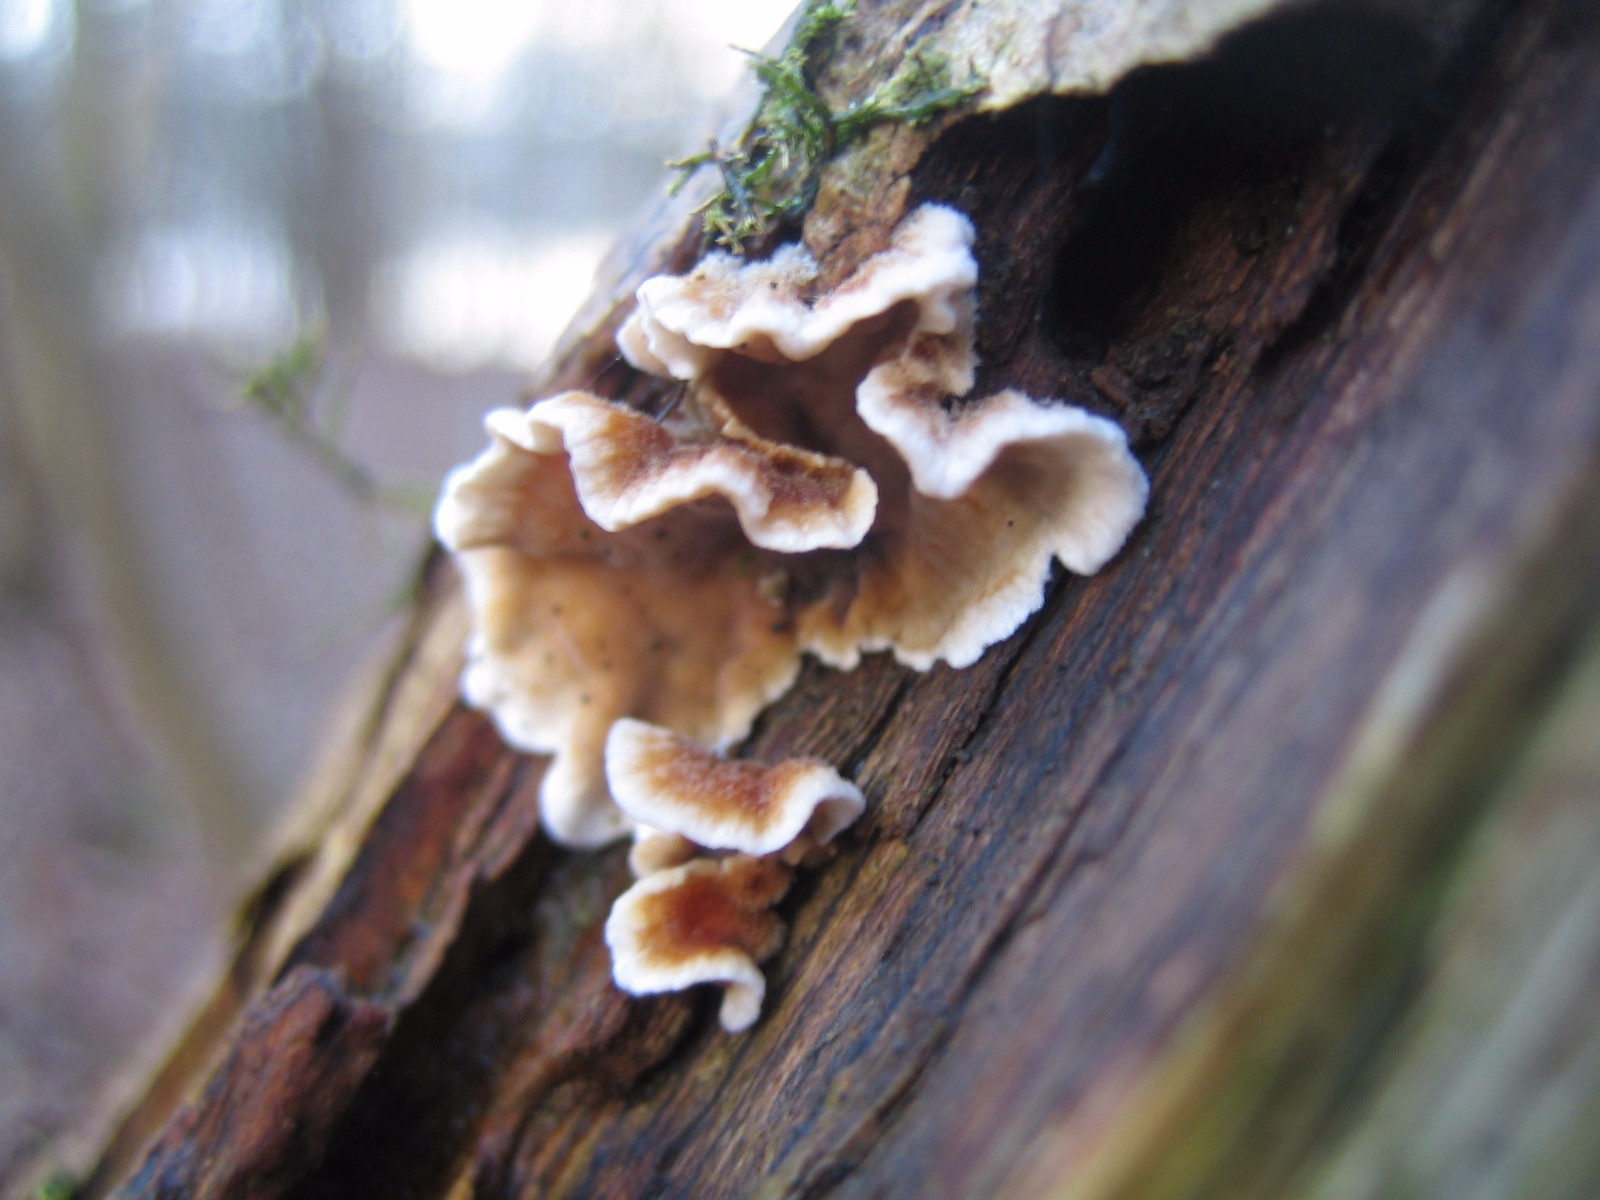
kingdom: Fungi
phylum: Basidiomycota
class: Agaricomycetes
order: Russulales
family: Stereaceae
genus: Stereum
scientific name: Stereum hirsutum
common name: håret lædersvamp
